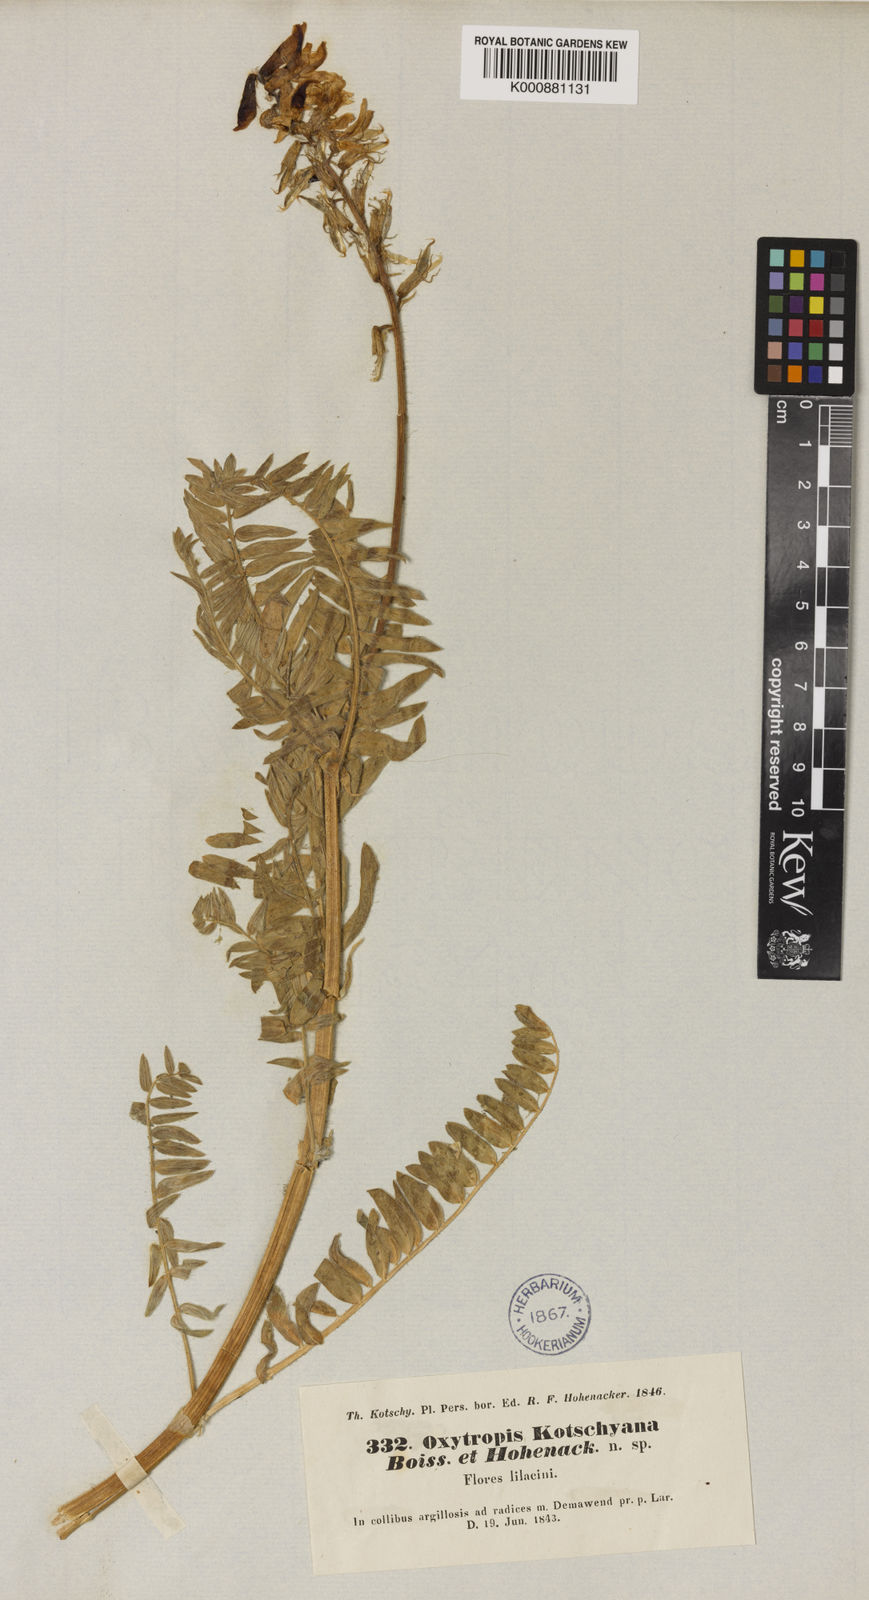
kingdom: Plantae
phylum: Tracheophyta
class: Magnoliopsida
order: Fabales
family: Fabaceae
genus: Oxytropis
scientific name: Oxytropis kotschyana
